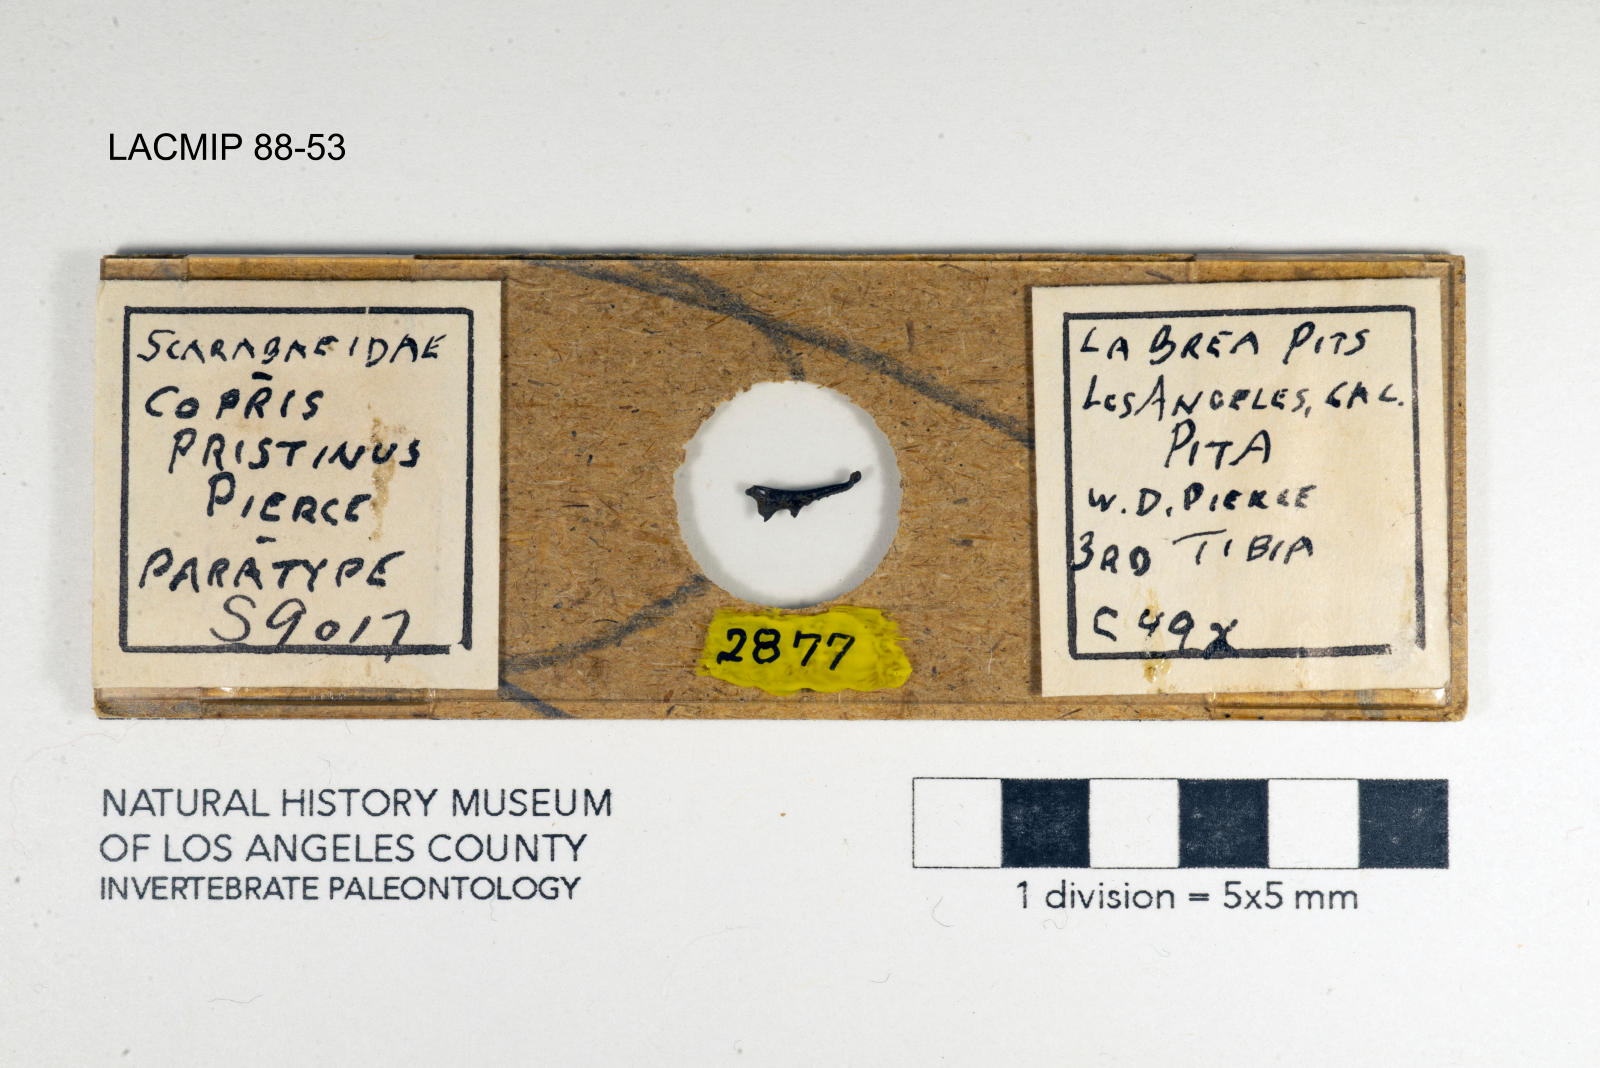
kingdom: Animalia
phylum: Arthropoda
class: Insecta
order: Coleoptera
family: Scarabaeidae
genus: Copris
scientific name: Copris pristinus
